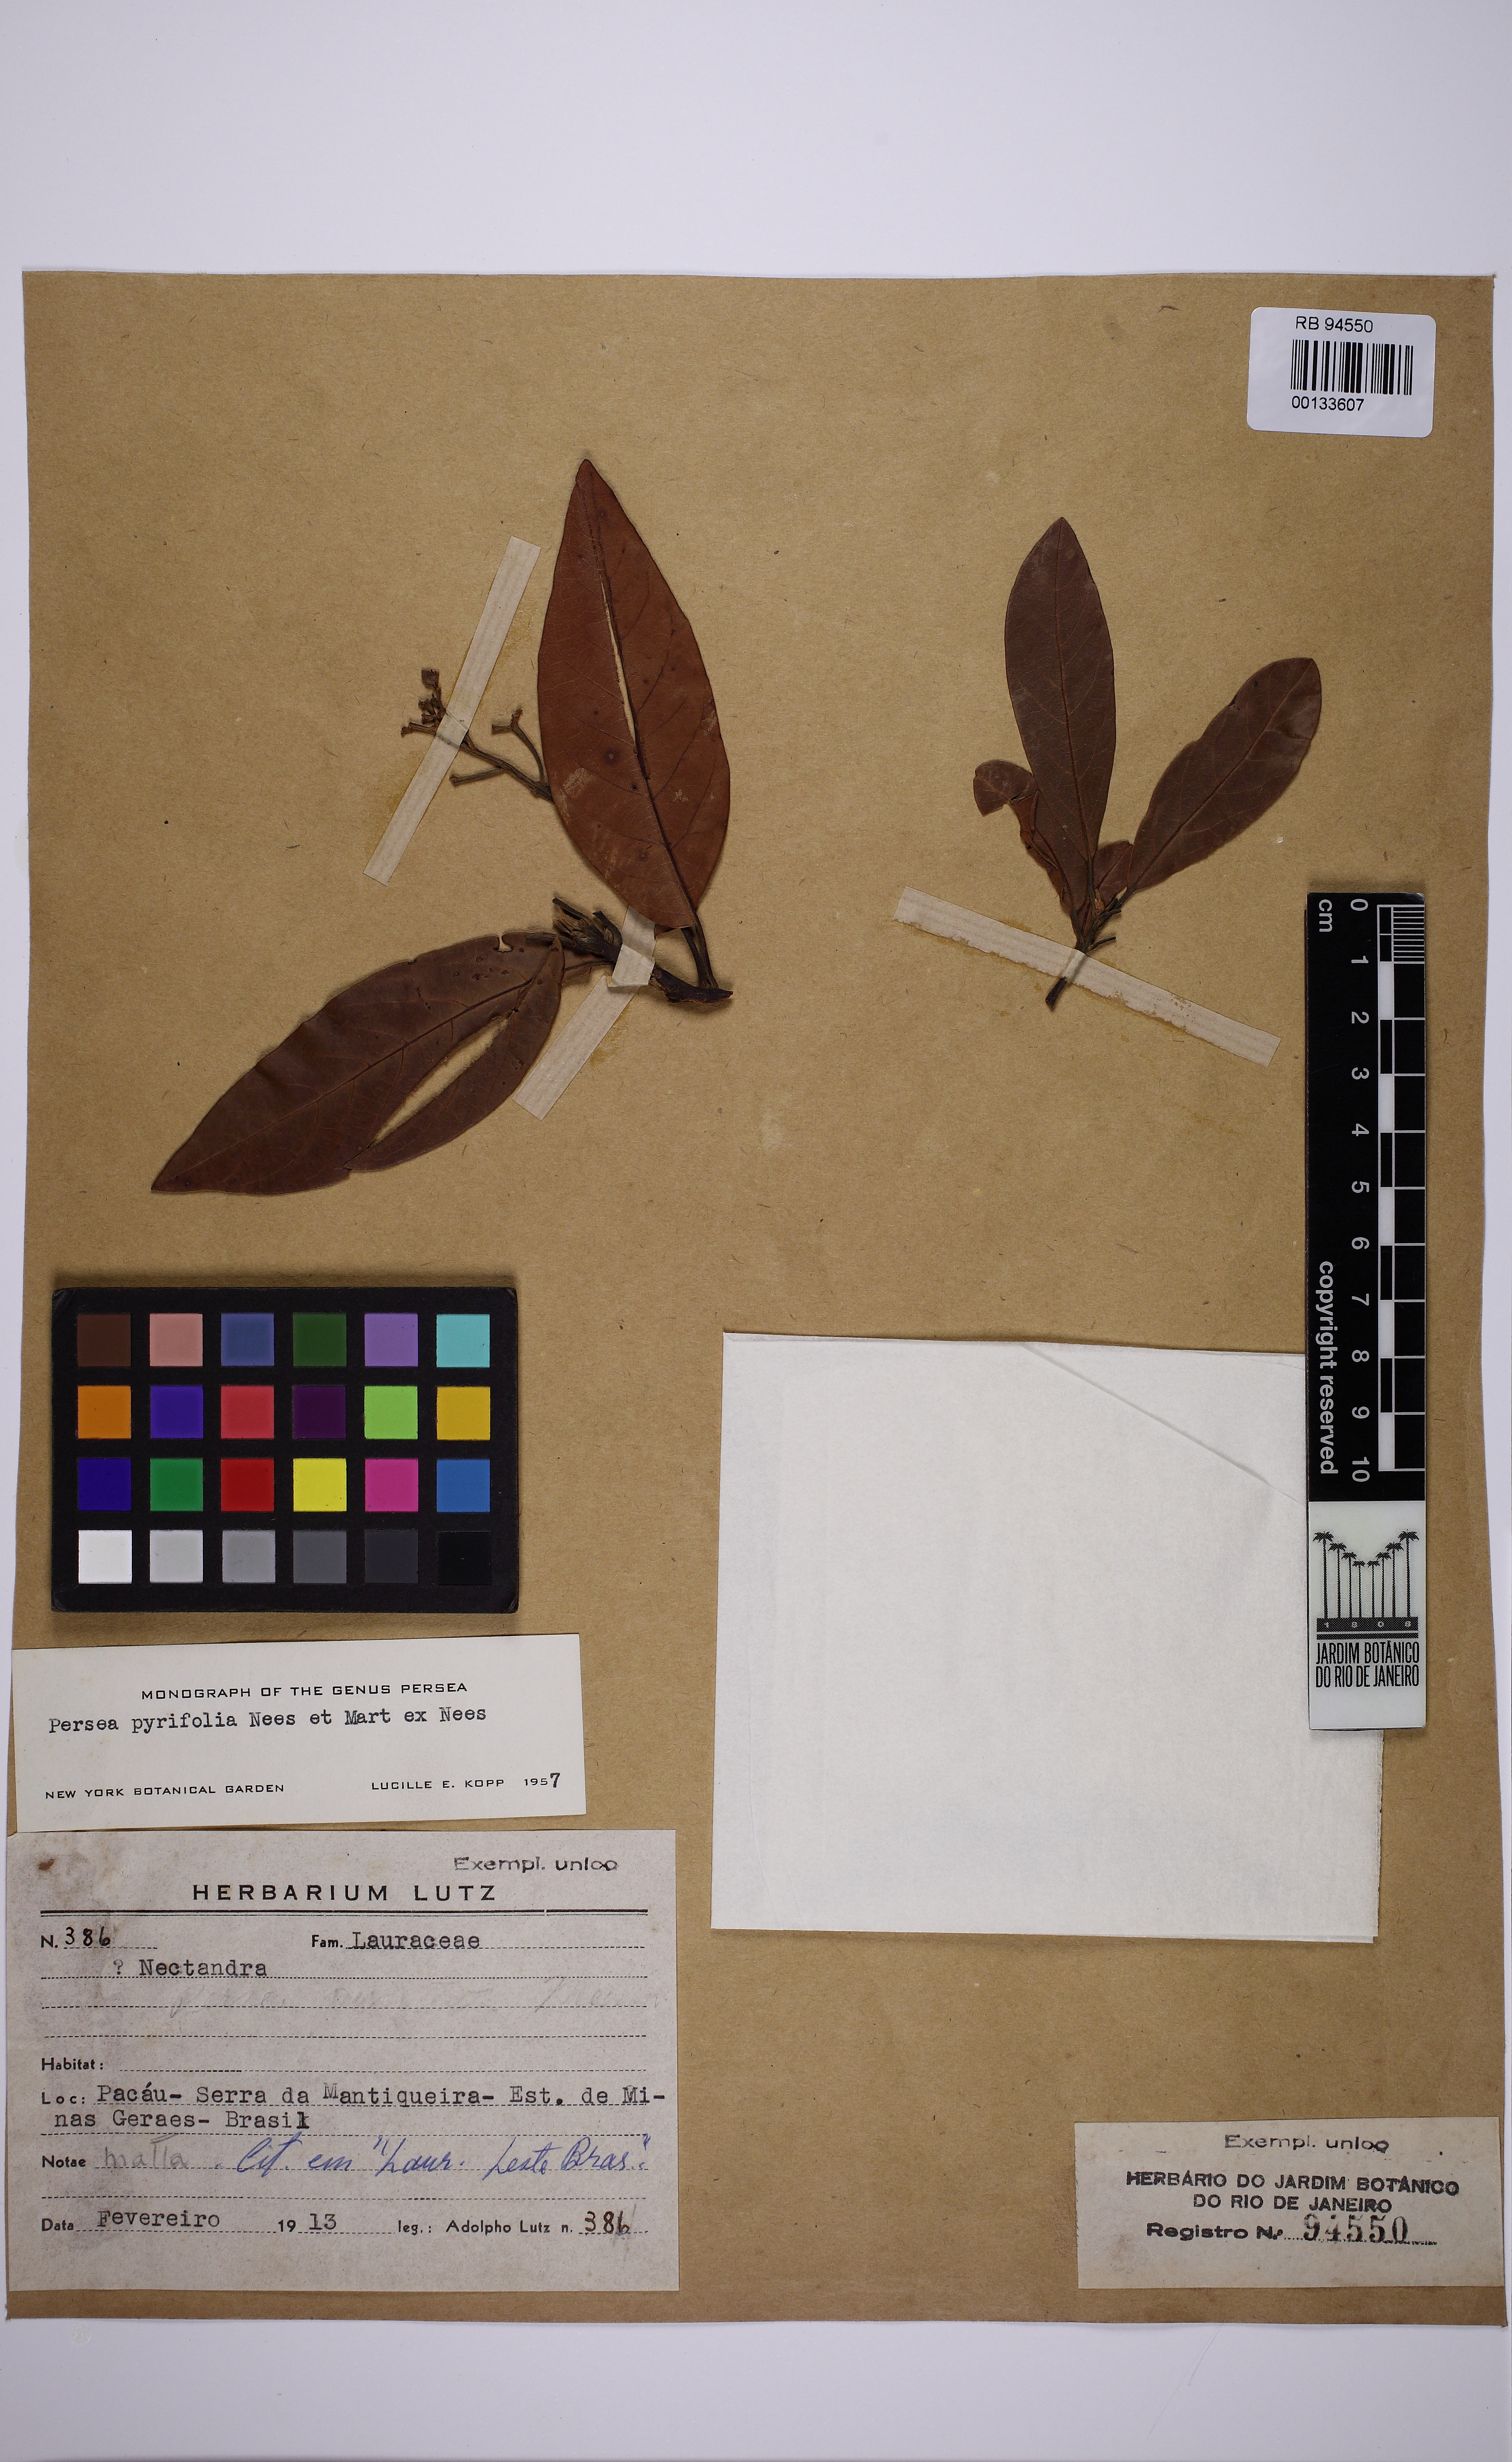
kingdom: Plantae
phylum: Tracheophyta
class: Magnoliopsida
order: Laurales
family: Lauraceae
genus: Persea
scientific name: Persea pyrifolia
